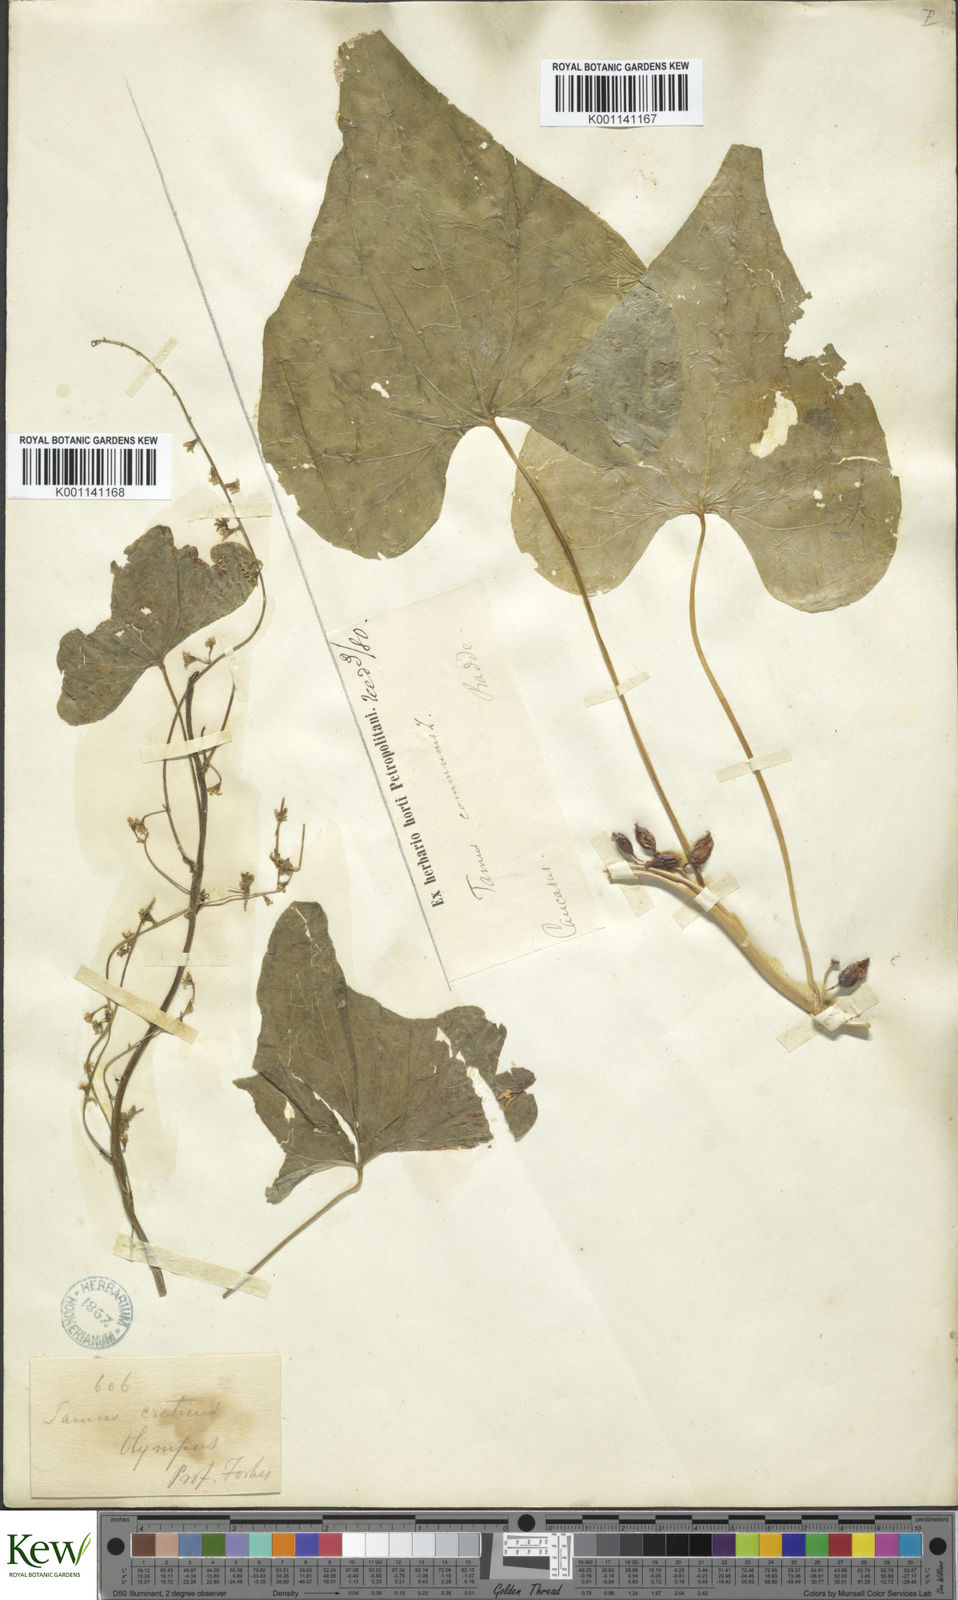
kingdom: Plantae
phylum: Tracheophyta
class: Liliopsida
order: Dioscoreales
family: Dioscoreaceae
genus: Dioscorea
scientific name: Dioscorea communis
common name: Black-bindweed
